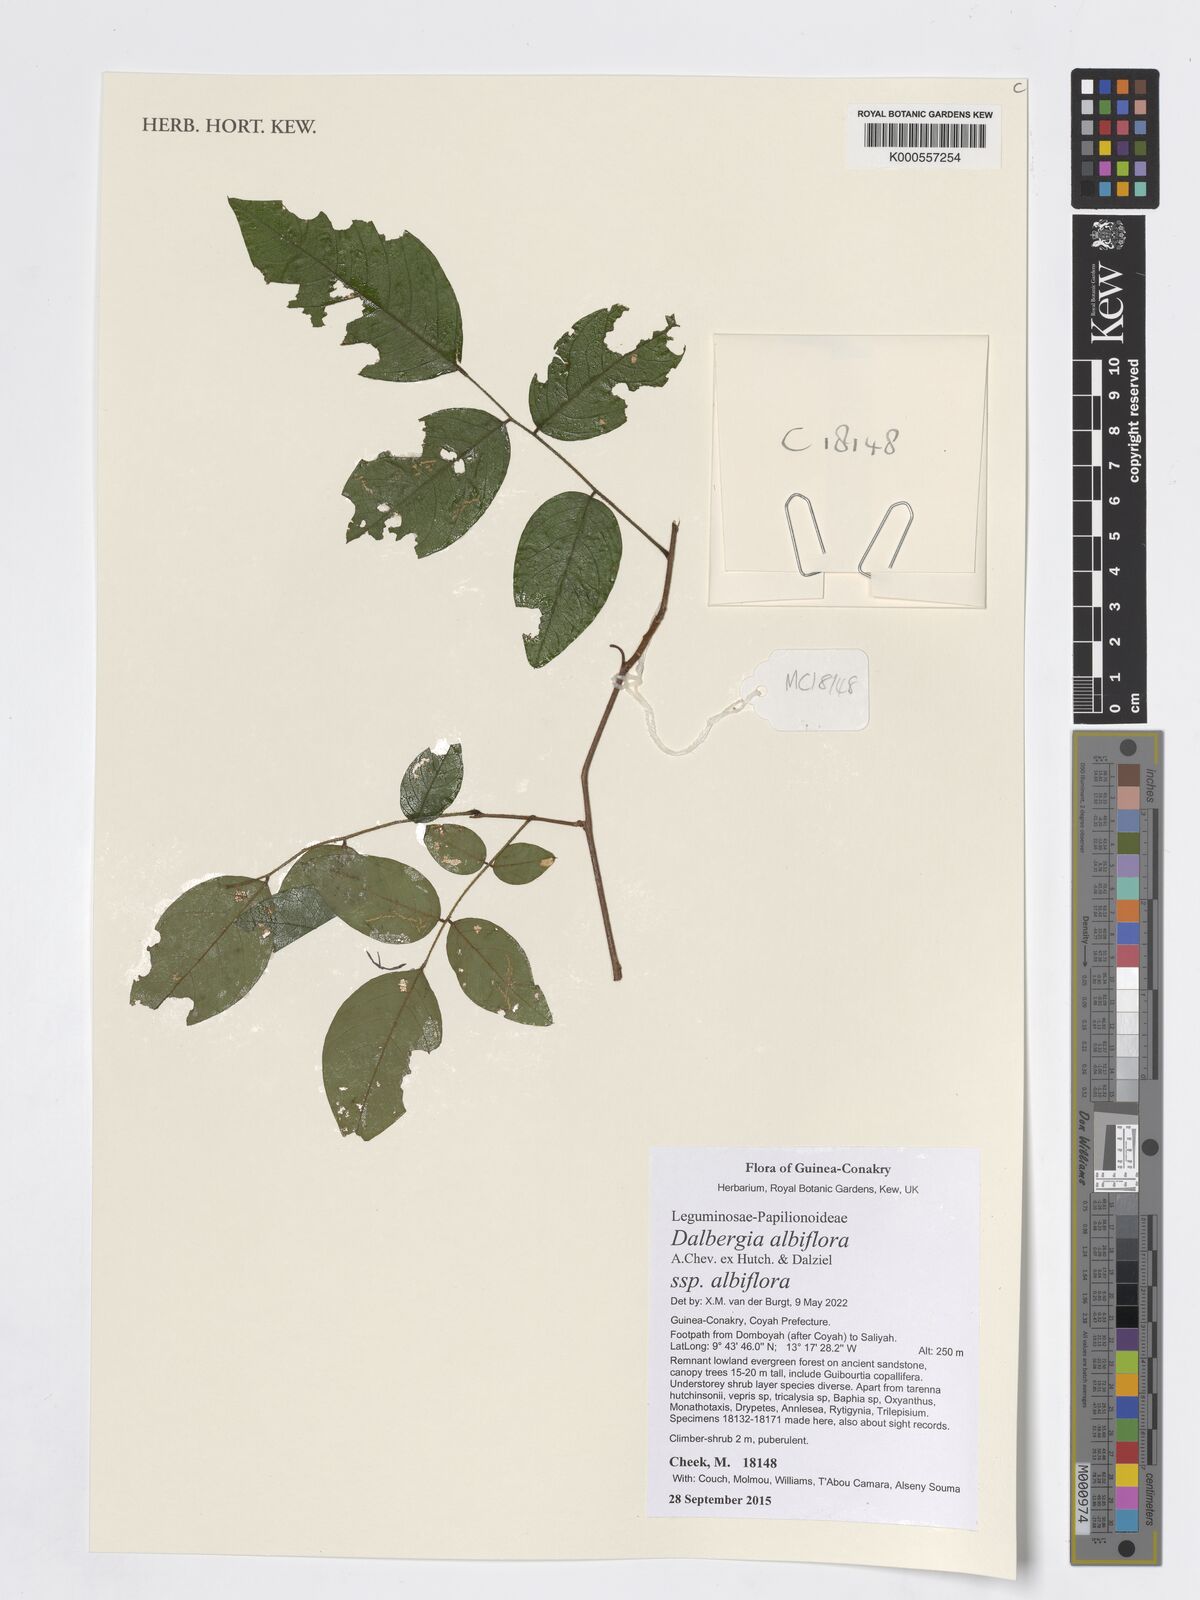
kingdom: Plantae
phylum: Tracheophyta
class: Magnoliopsida
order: Fabales
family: Fabaceae
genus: Dalbergia
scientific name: Dalbergia albiflora
